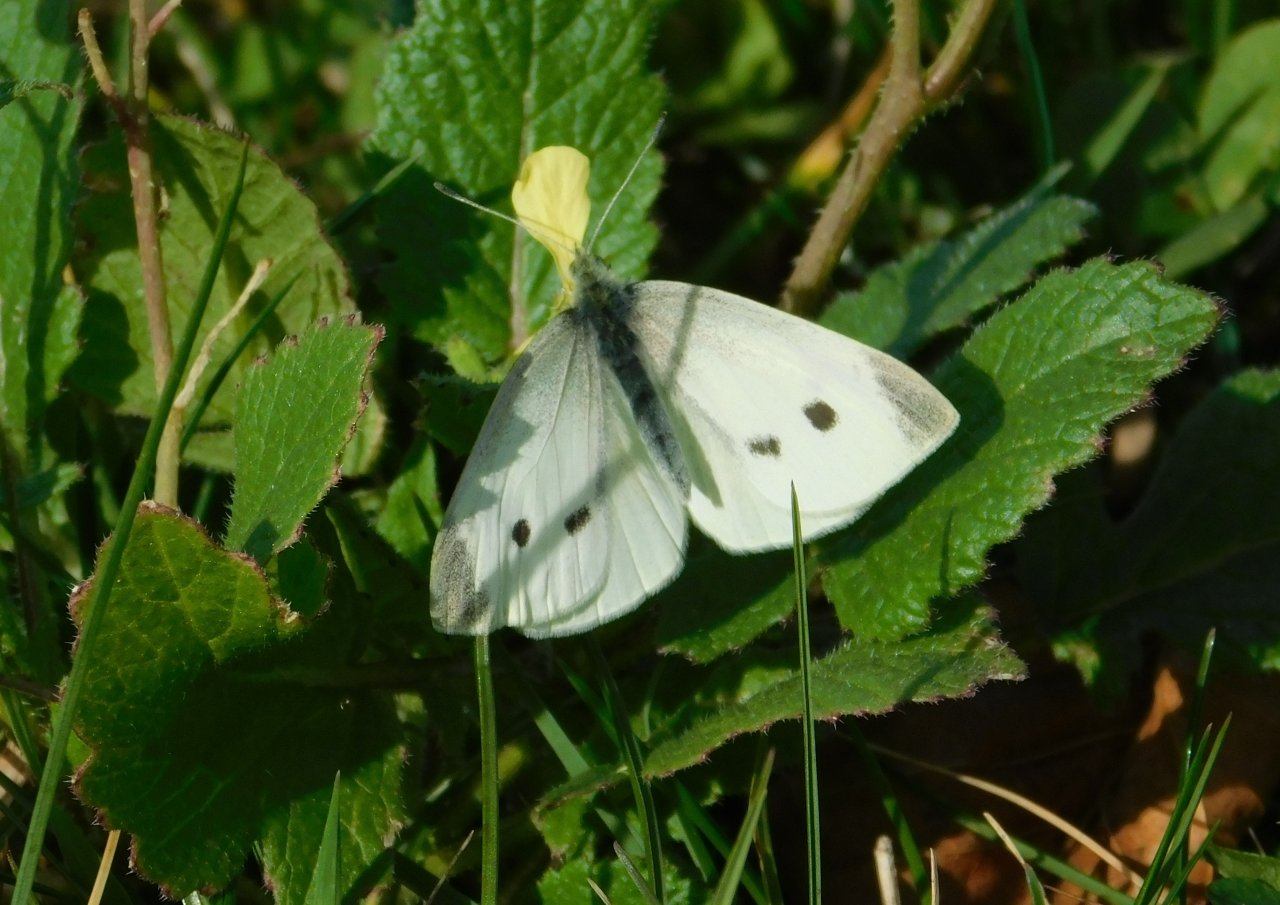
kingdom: Animalia
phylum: Arthropoda
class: Insecta
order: Lepidoptera
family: Pieridae
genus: Pieris
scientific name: Pieris rapae
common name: Cabbage White
